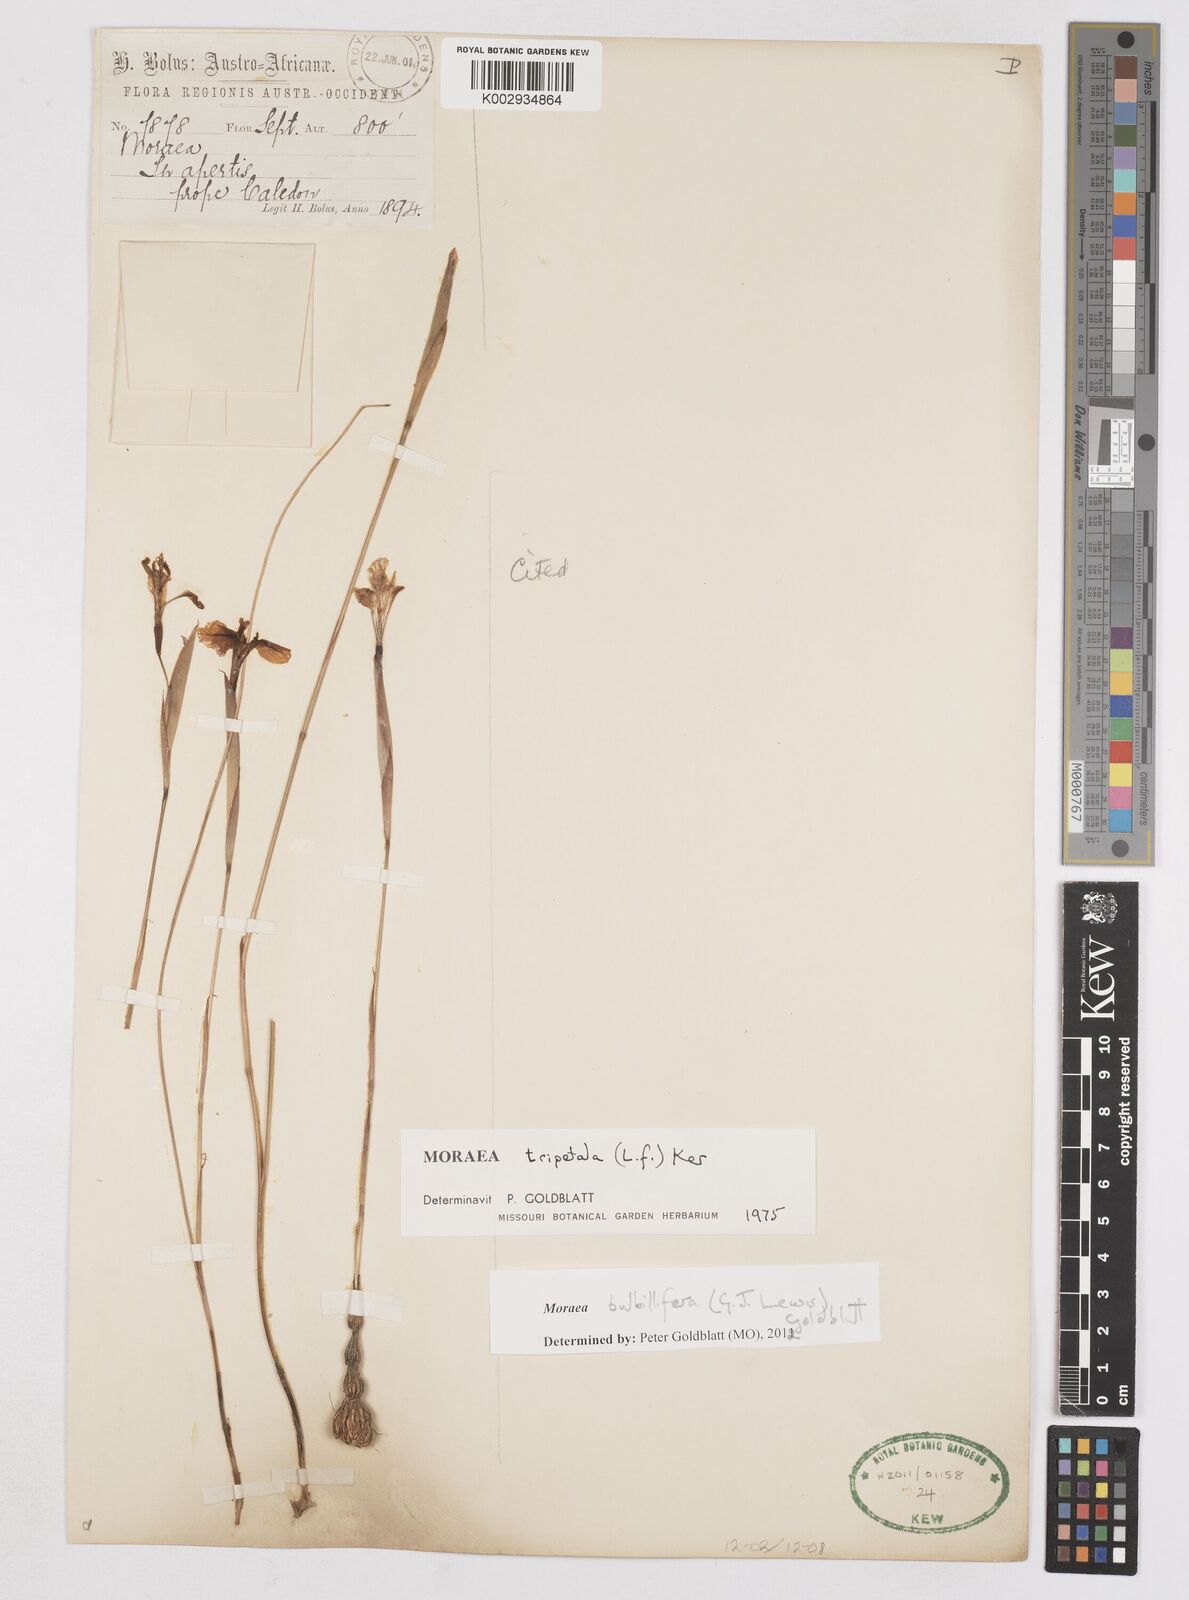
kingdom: Plantae
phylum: Tracheophyta
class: Liliopsida
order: Asparagales
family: Iridaceae
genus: Moraea
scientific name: Moraea bulbillifera
